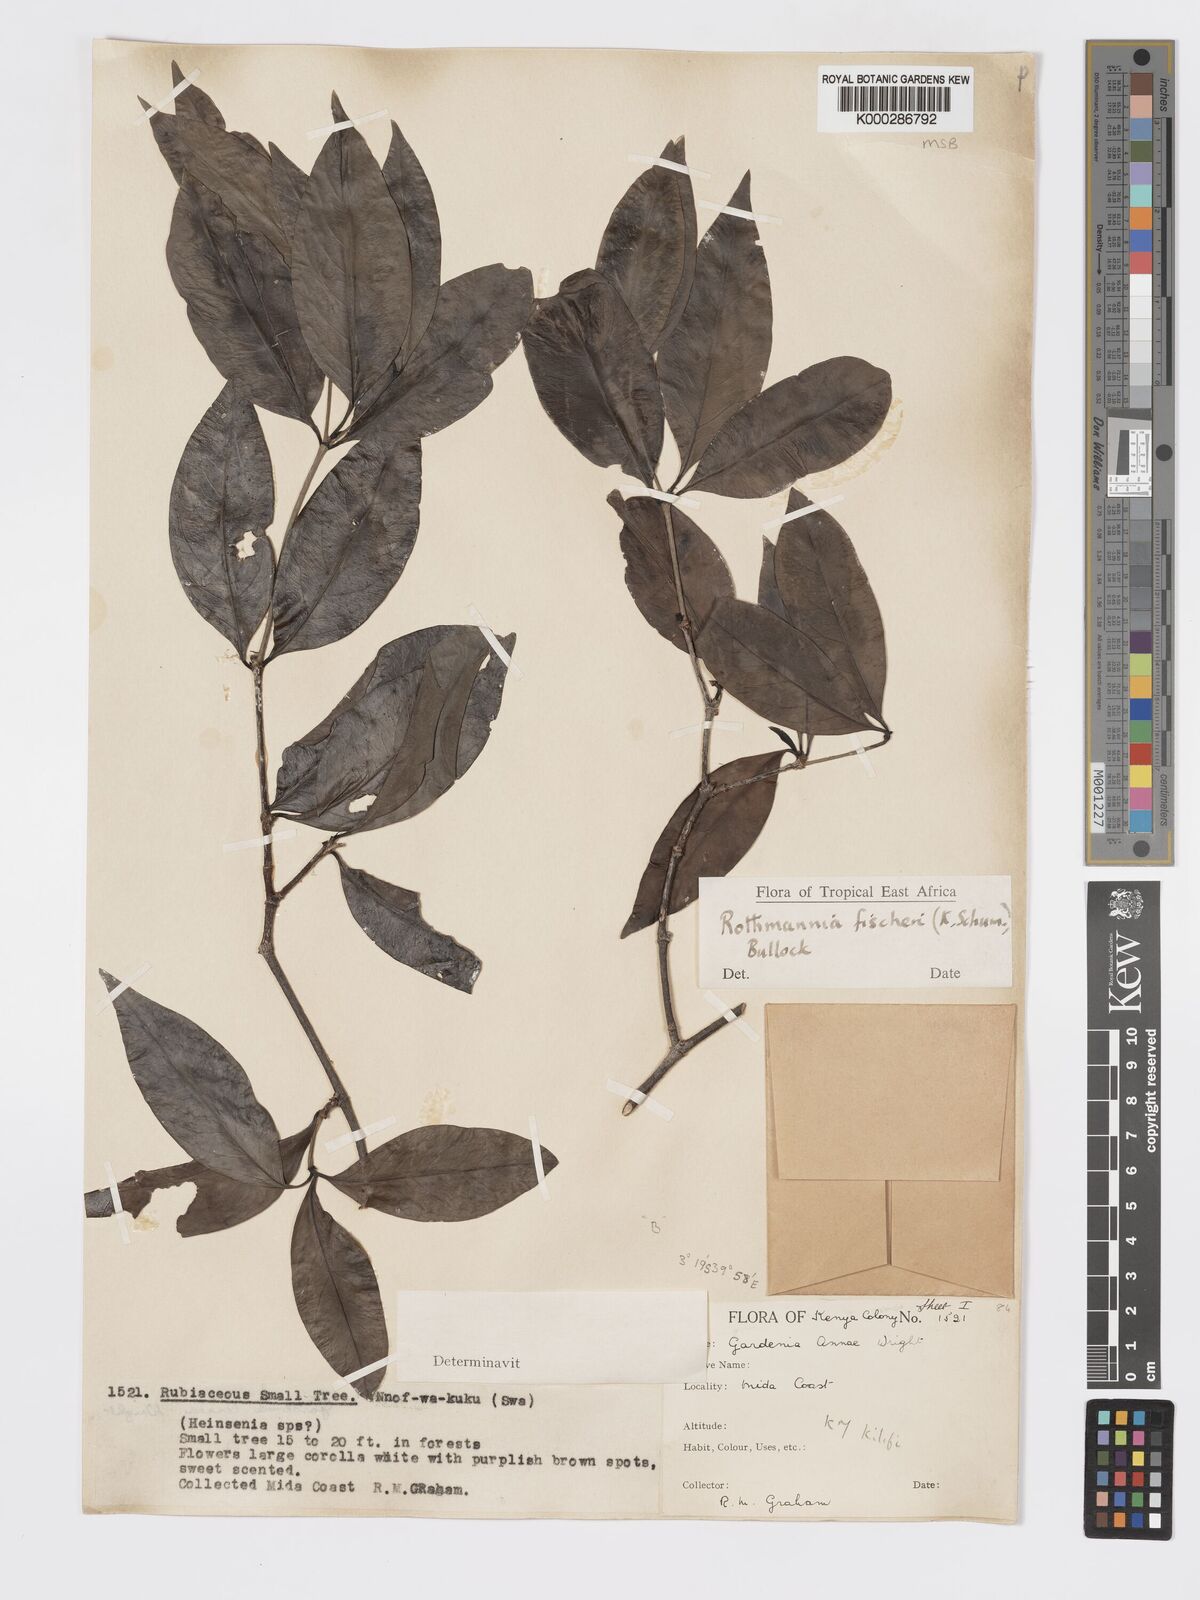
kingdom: Plantae
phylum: Tracheophyta
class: Magnoliopsida
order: Gentianales
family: Rubiaceae
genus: Rothmannia
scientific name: Rothmannia ravae
